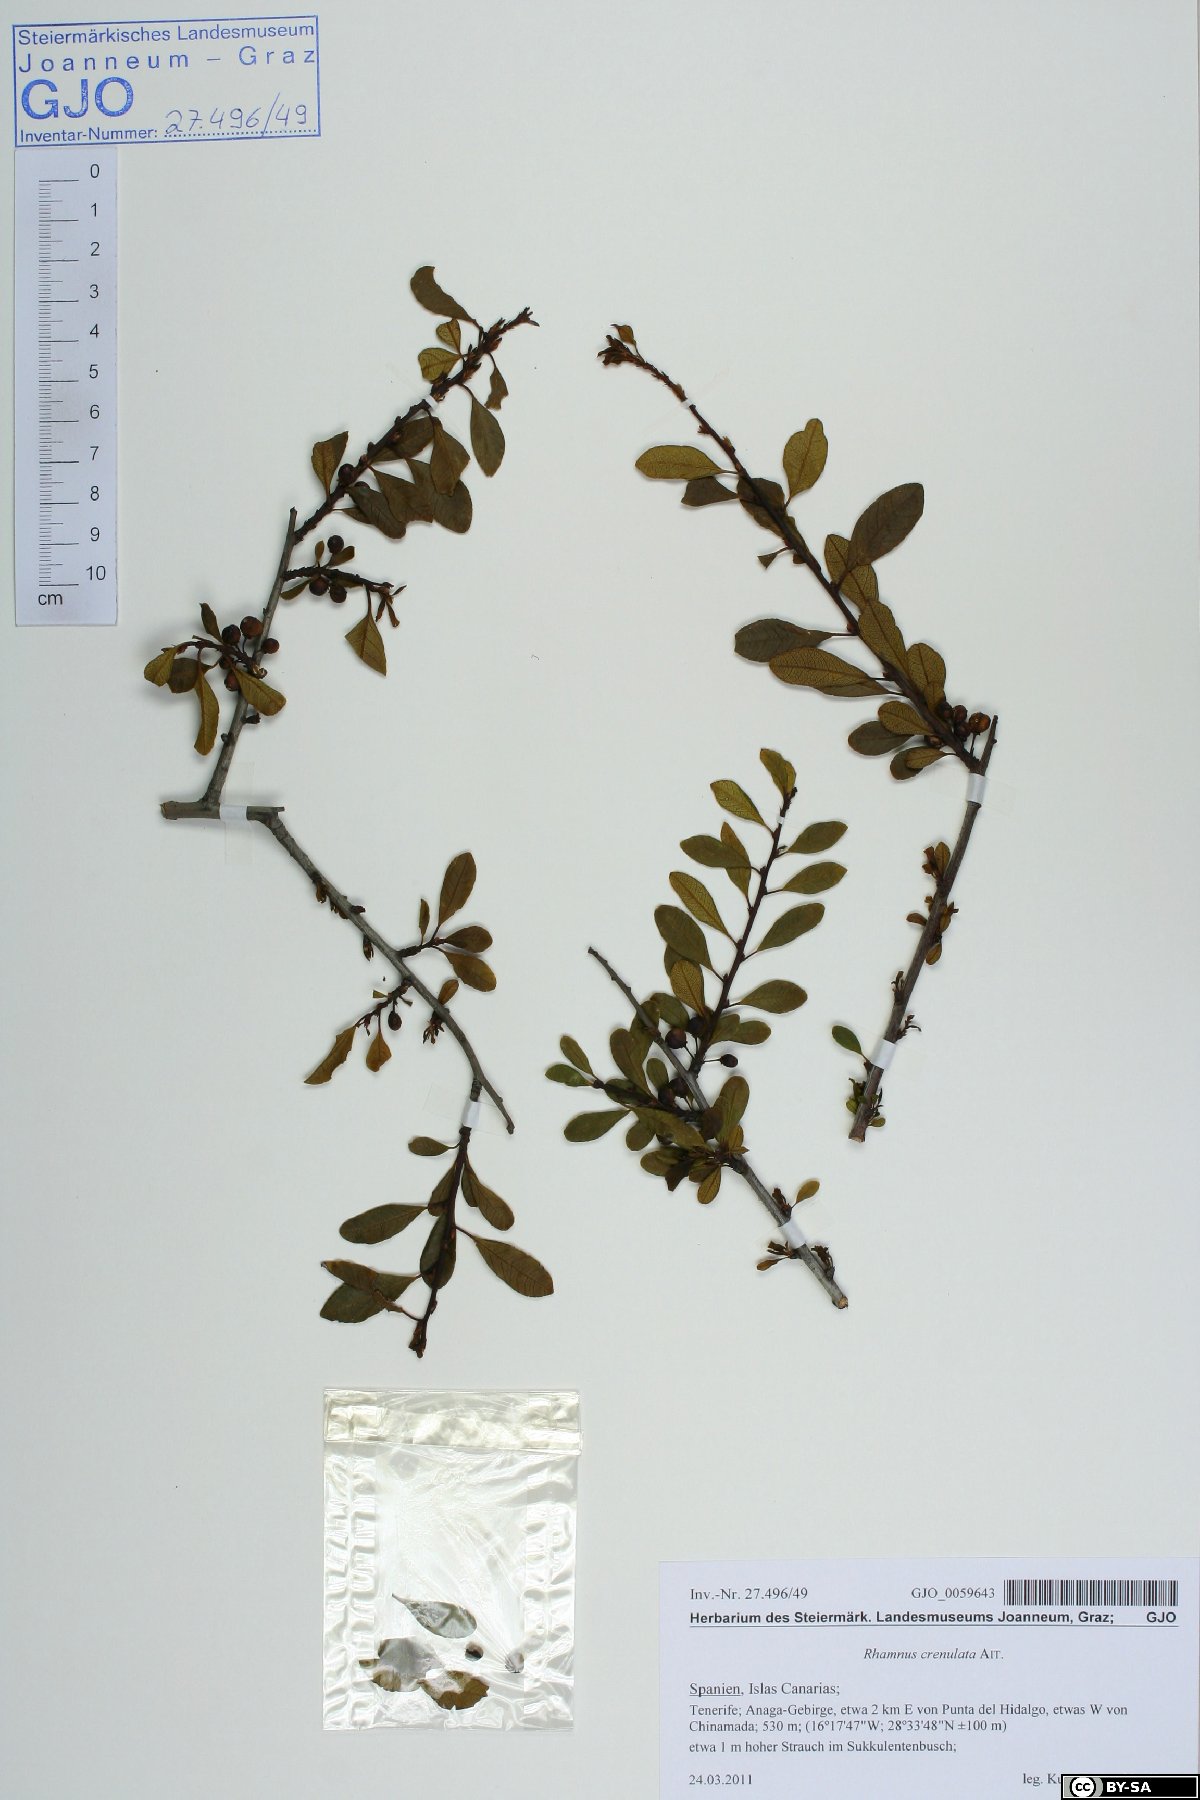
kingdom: Plantae
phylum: Tracheophyta
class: Magnoliopsida
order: Rosales
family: Rhamnaceae
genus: Rhamnus
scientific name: Rhamnus crenulata
